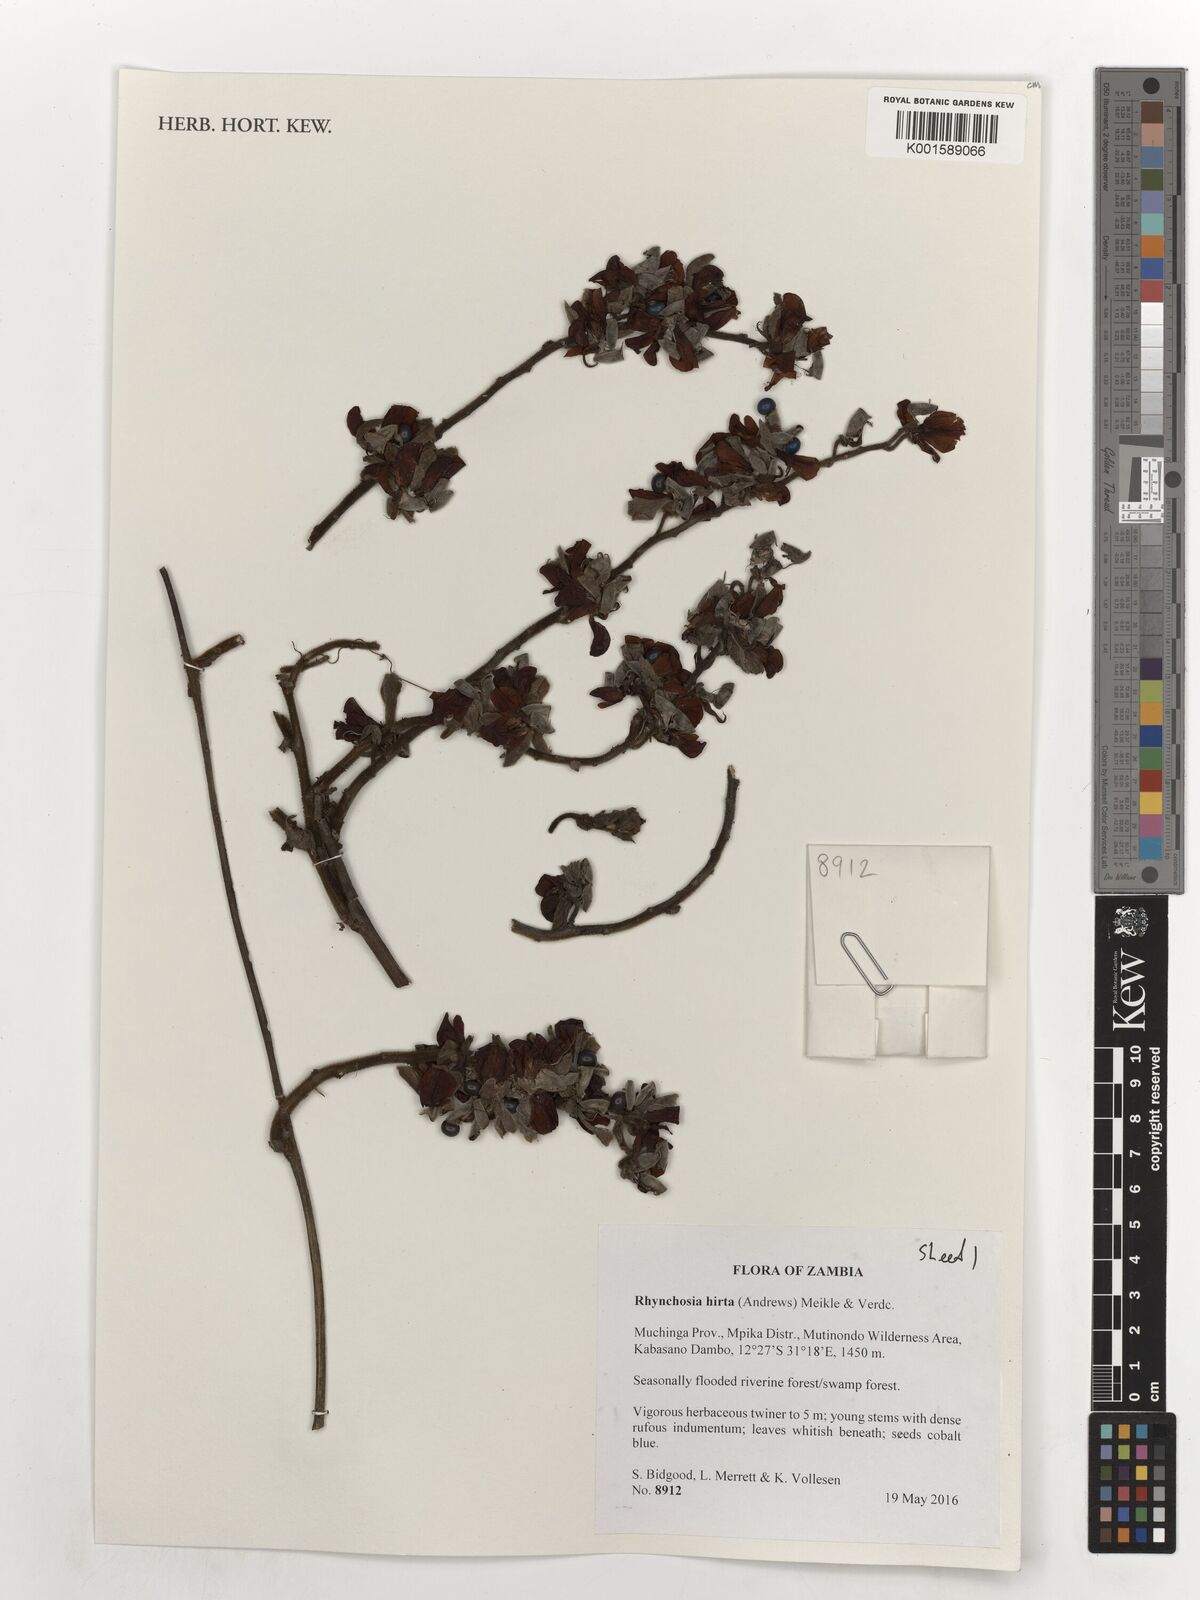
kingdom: Plantae
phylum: Tracheophyta
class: Magnoliopsida
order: Fabales
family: Fabaceae
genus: Rhynchosia
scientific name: Rhynchosia hirta
